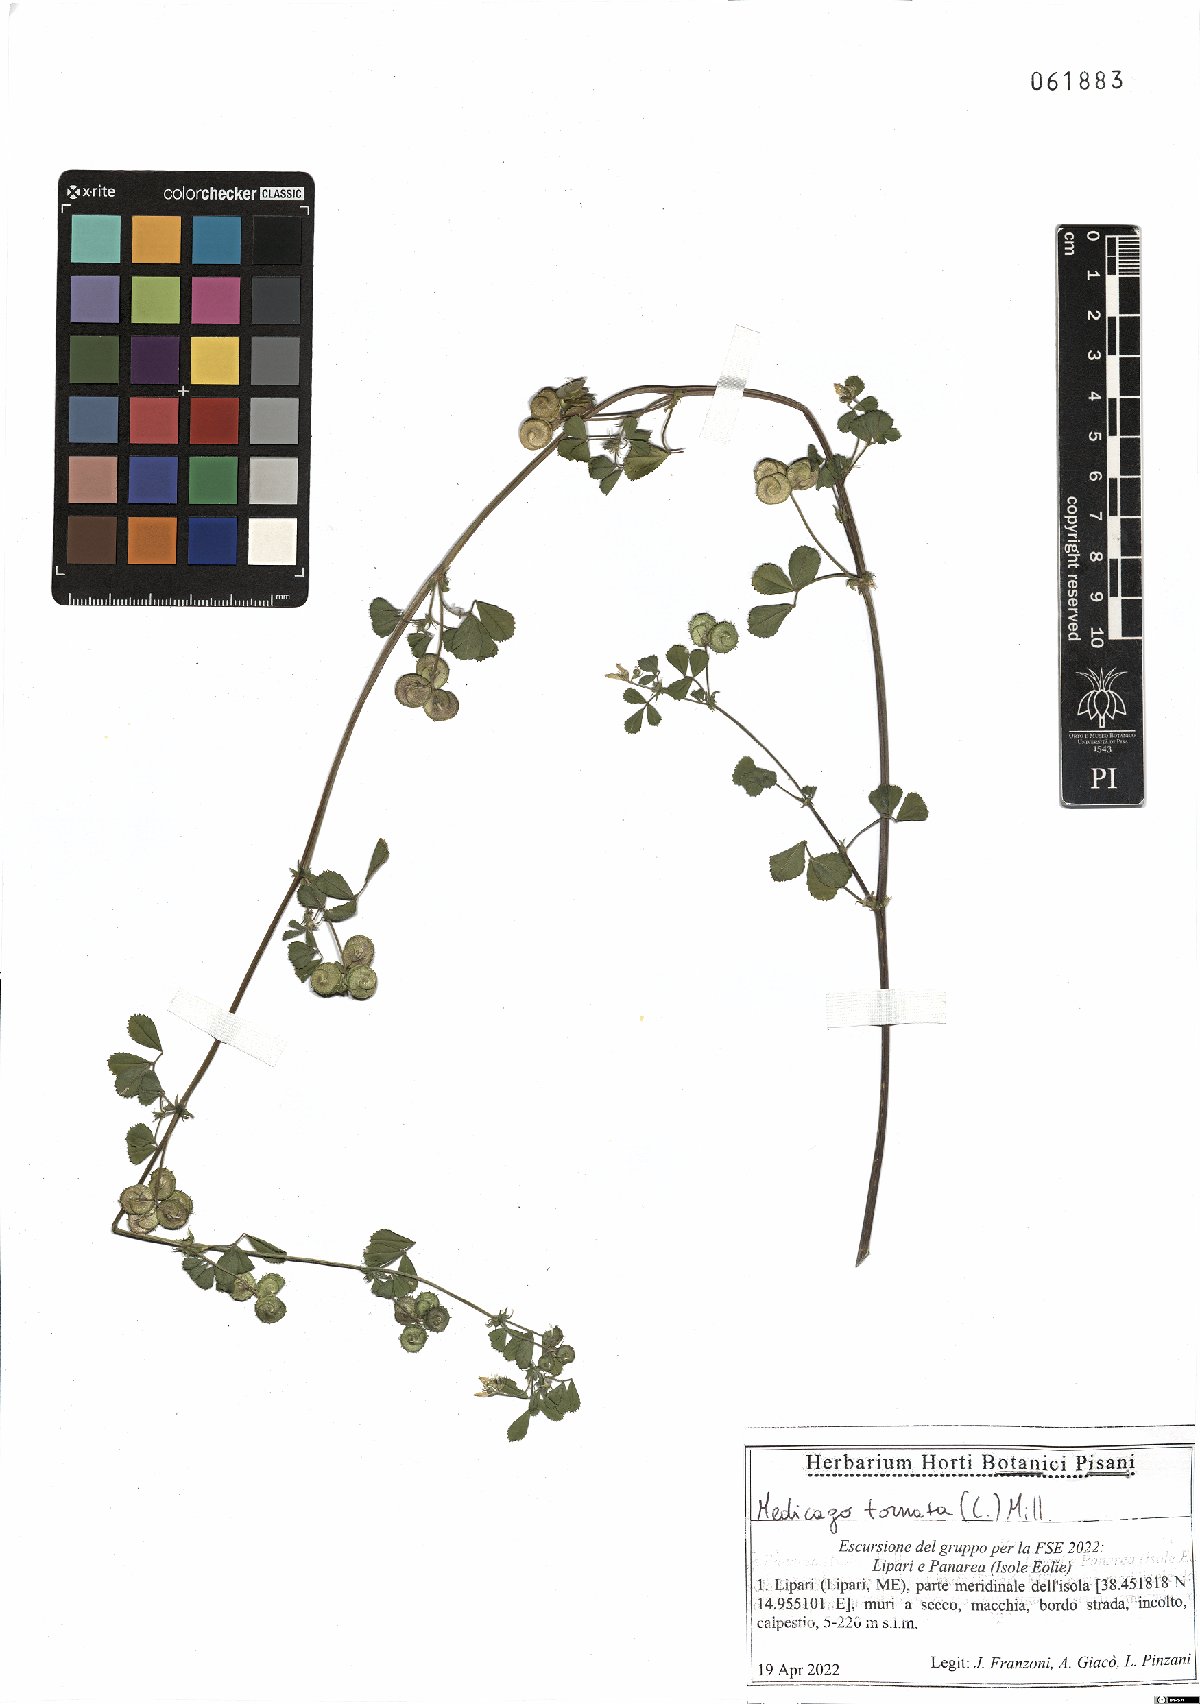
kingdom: Plantae
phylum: Tracheophyta
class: Magnoliopsida
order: Fabales
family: Fabaceae
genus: Medicago
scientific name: Medicago tornata
